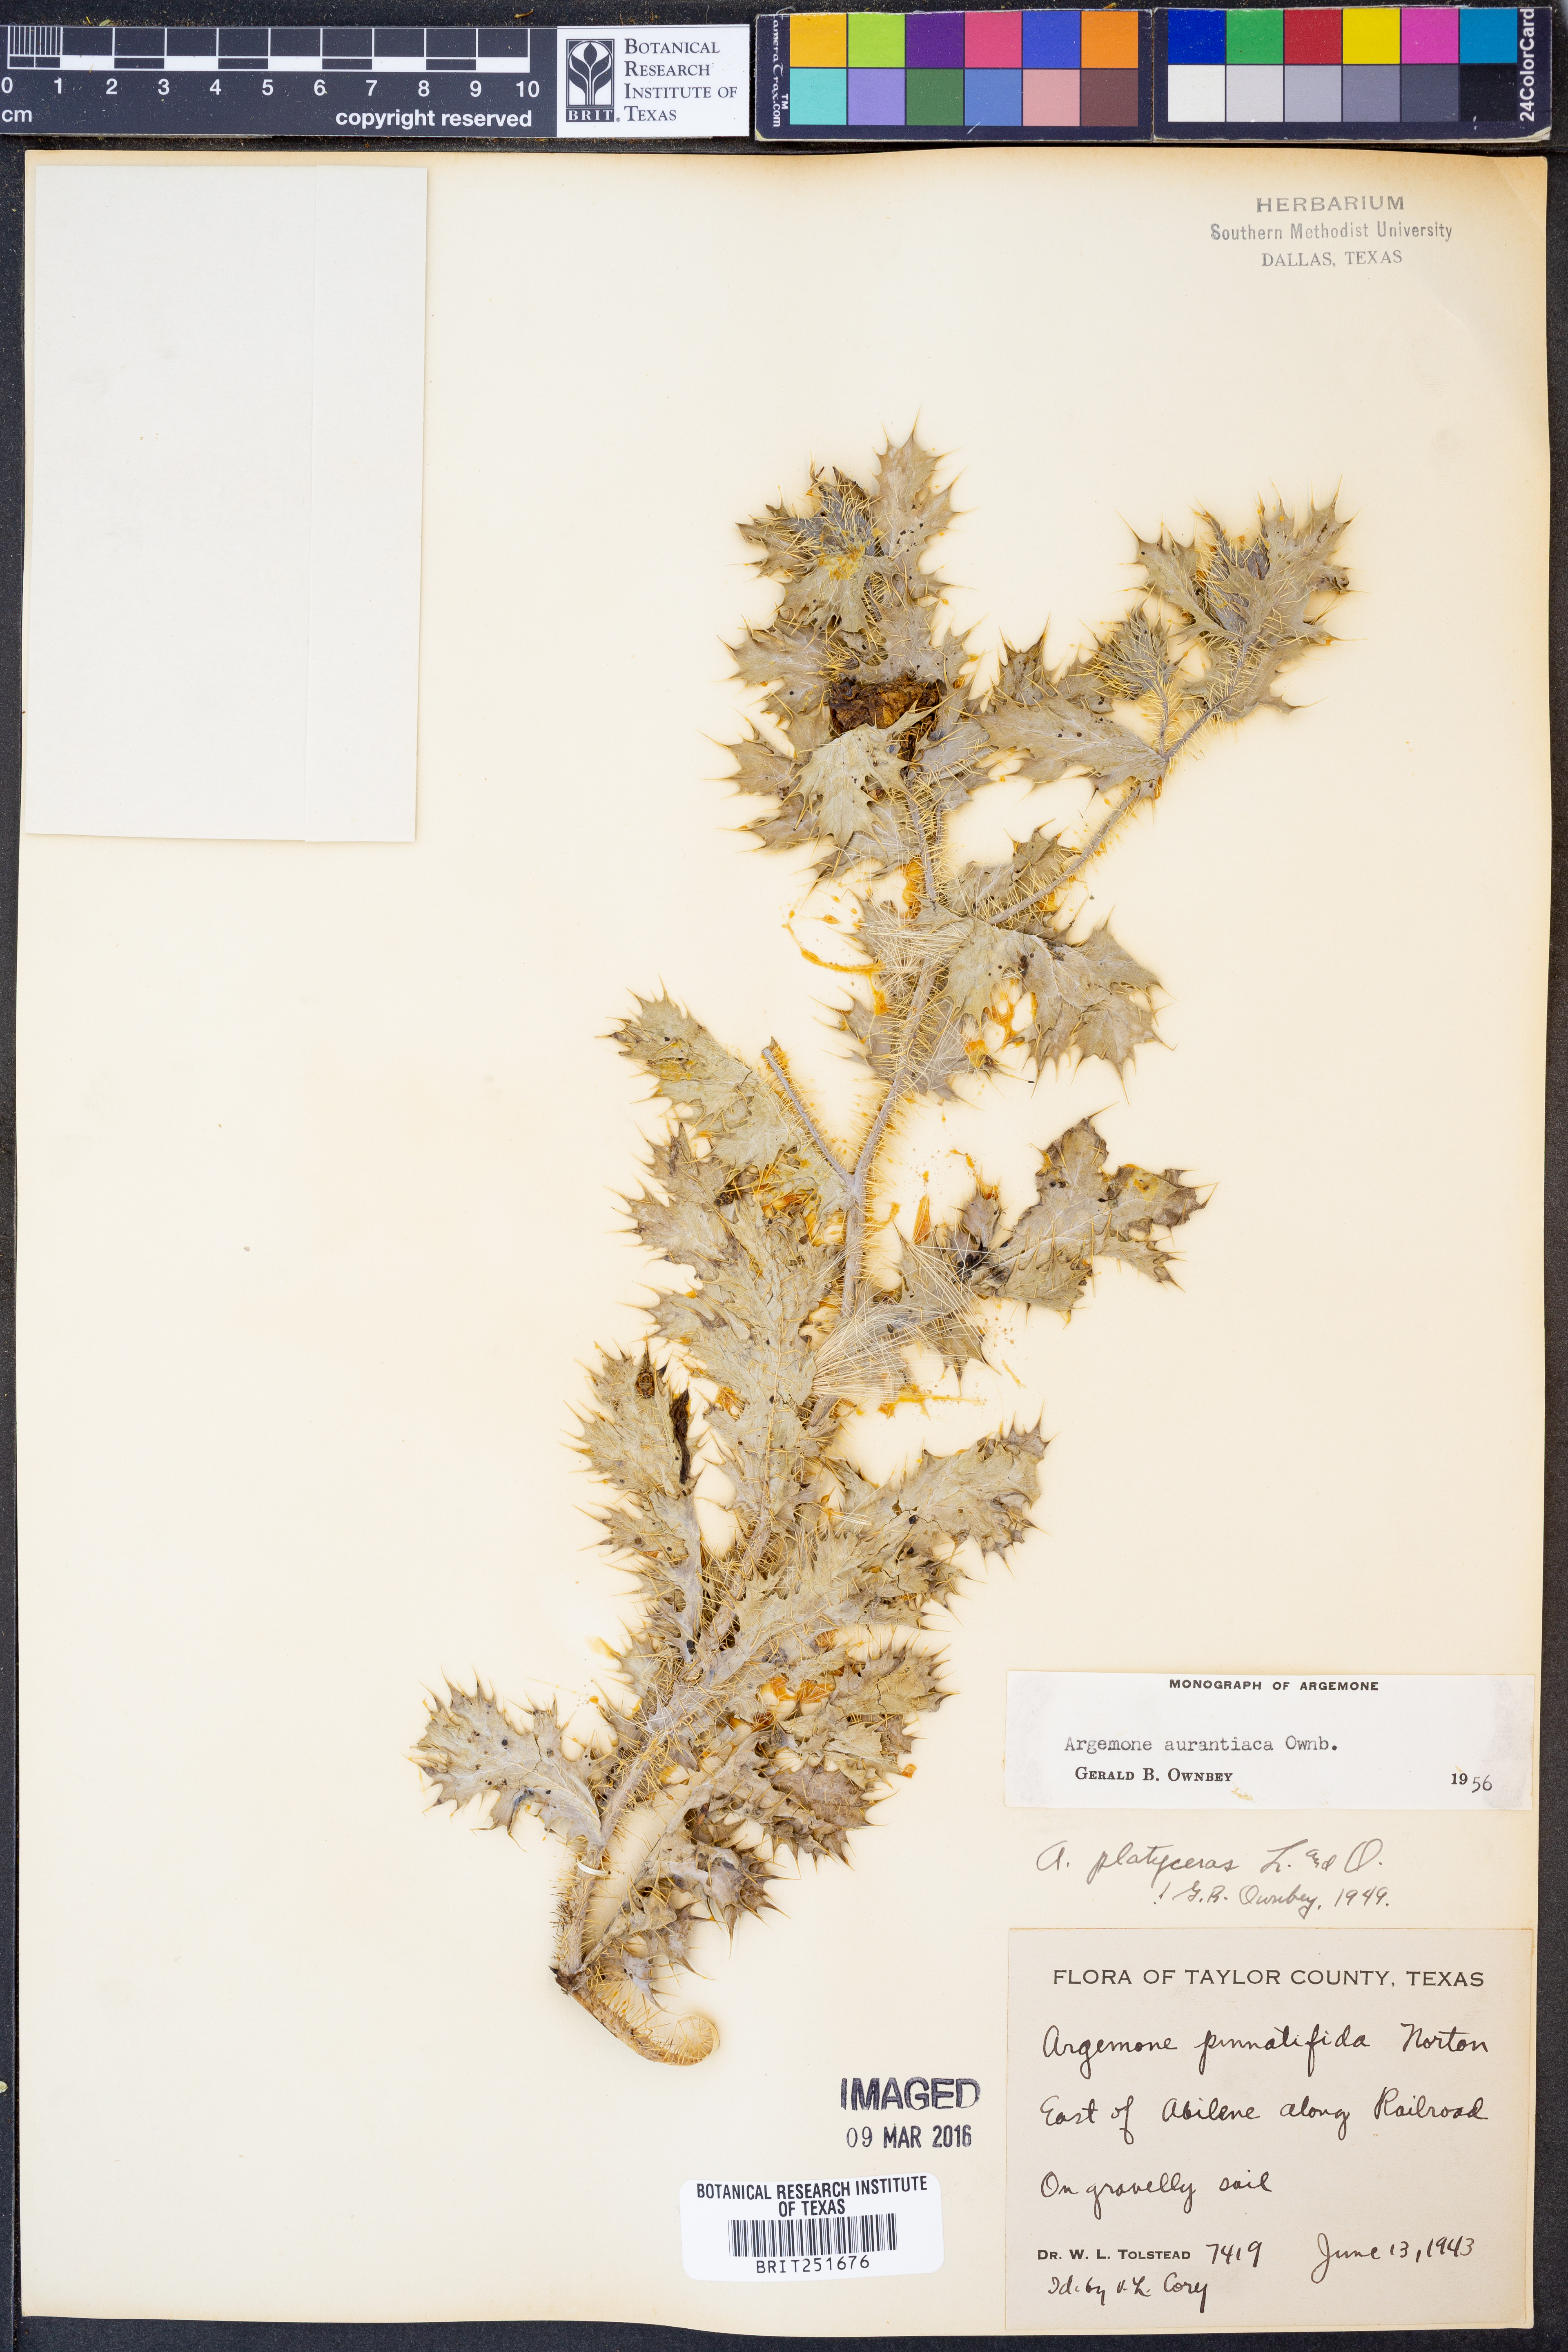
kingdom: Plantae
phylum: Tracheophyta
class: Magnoliopsida
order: Ranunculales
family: Papaveraceae
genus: Argemone
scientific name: Argemone aurantiaca
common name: Texas prickly-poppy
